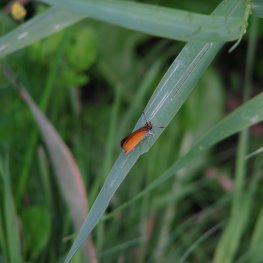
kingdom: Animalia
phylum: Arthropoda
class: Insecta
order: Lepidoptera
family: Hesperiidae
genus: Ancyloxypha
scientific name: Ancyloxypha numitor
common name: Least Skipper
